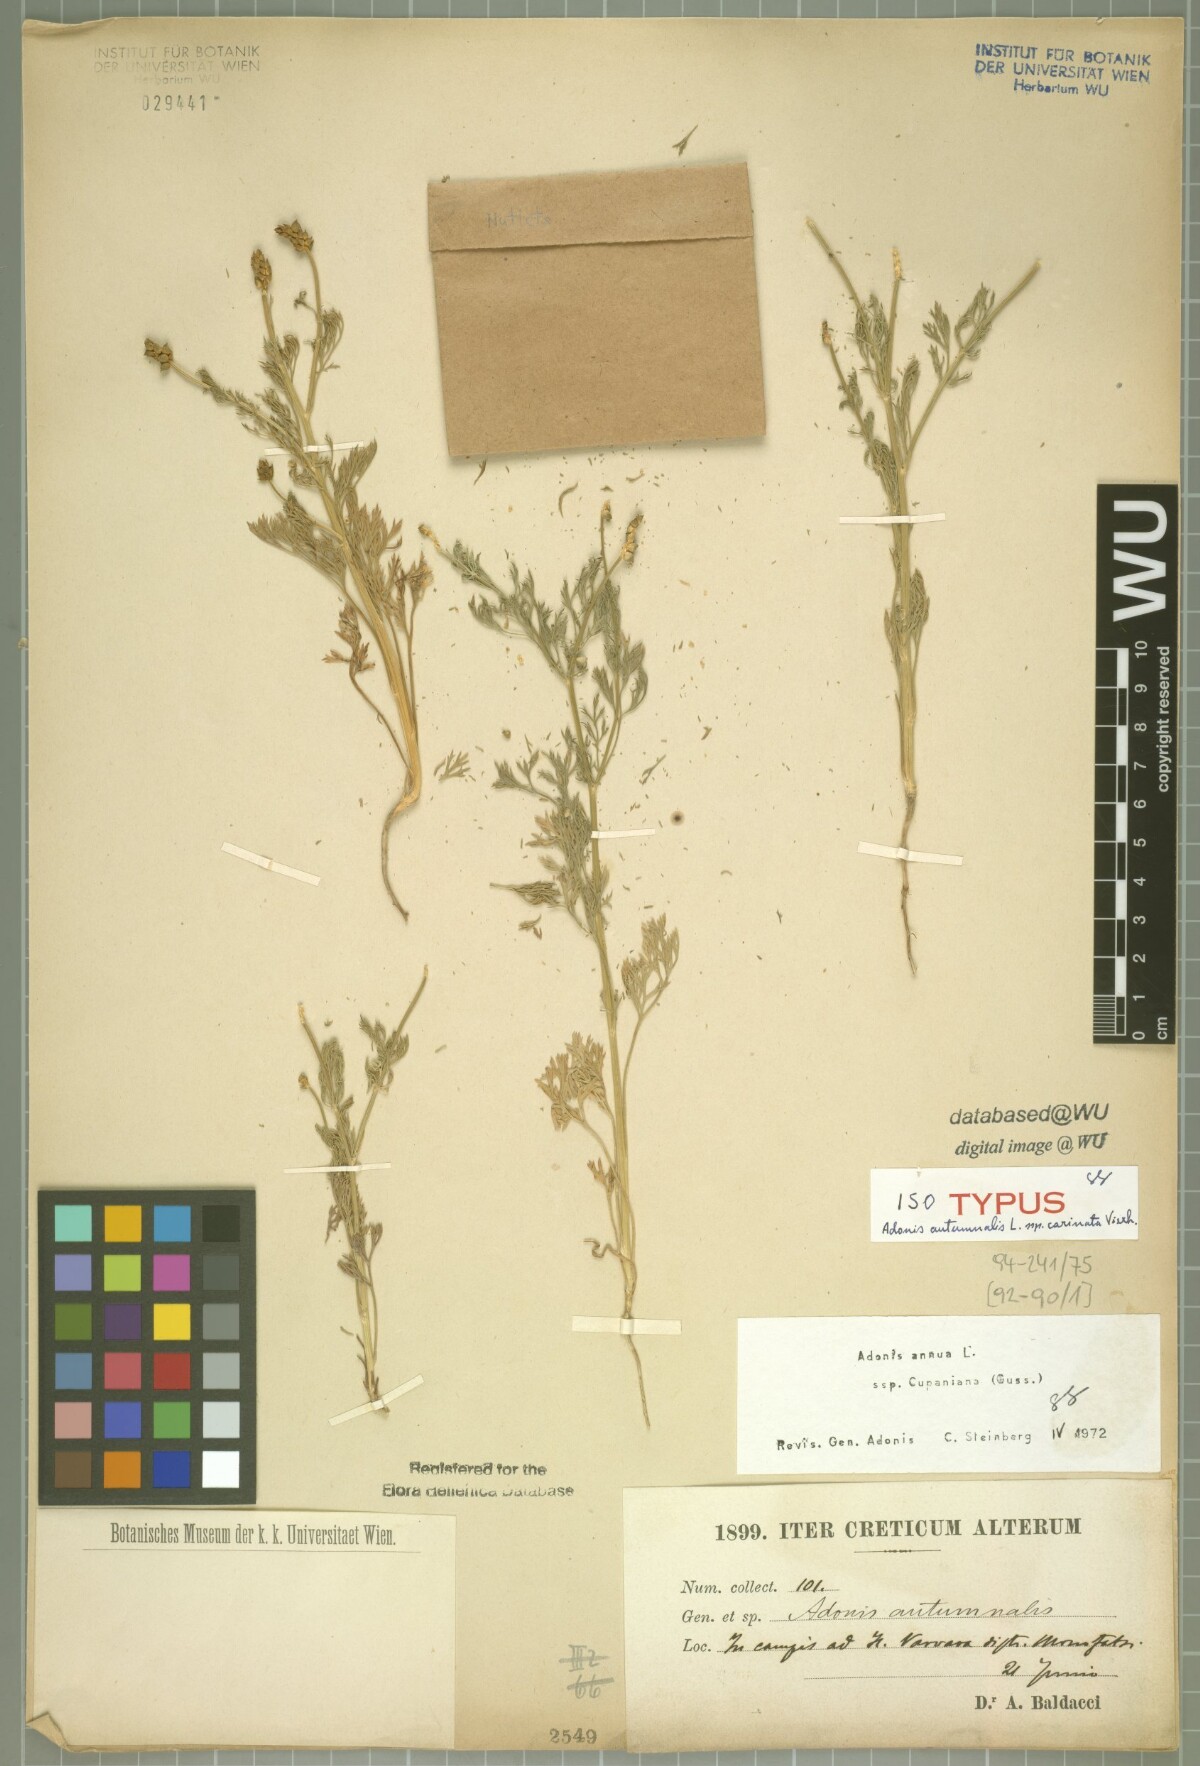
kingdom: Plantae
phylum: Tracheophyta
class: Magnoliopsida
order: Ranunculales
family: Ranunculaceae
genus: Adonis
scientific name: Adonis annua
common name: Pheasant's-eye
